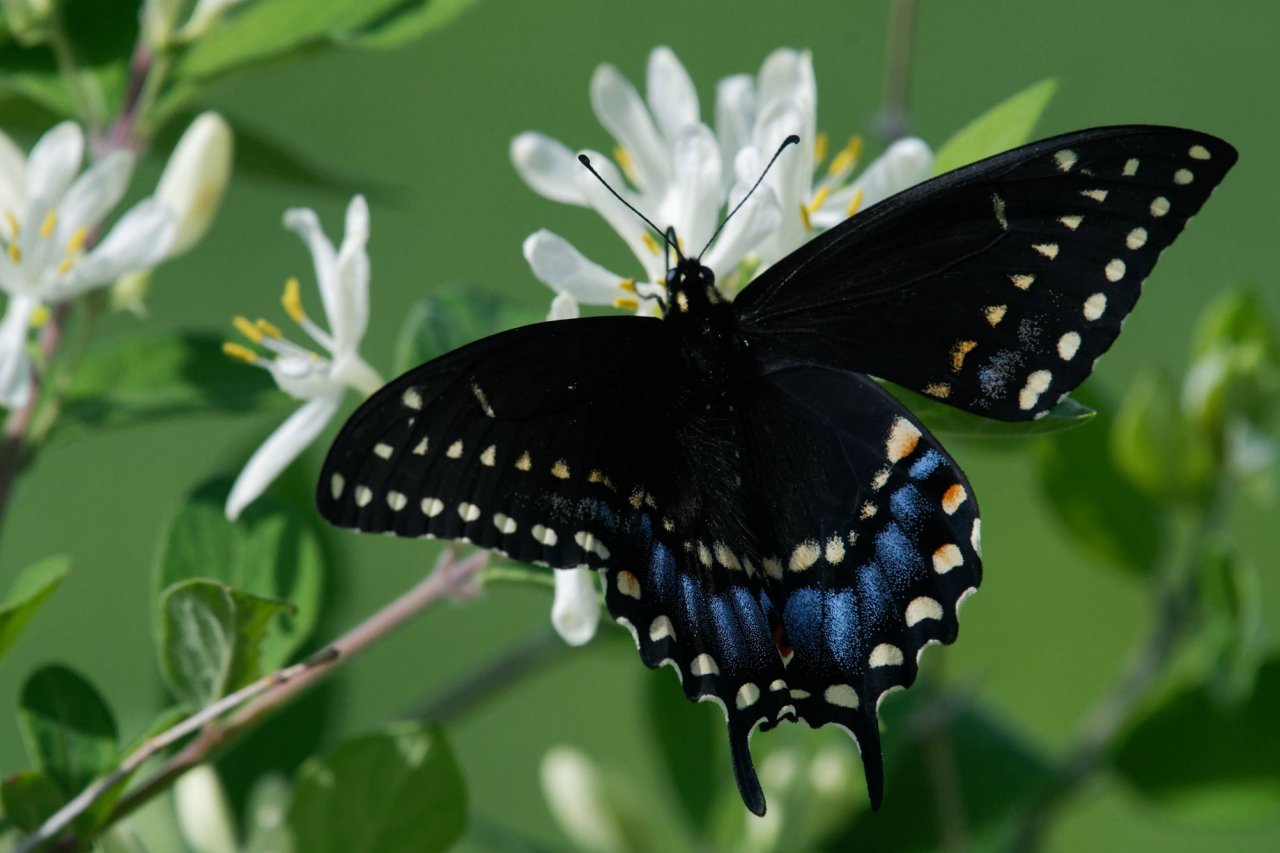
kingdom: Animalia
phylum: Arthropoda
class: Insecta
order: Lepidoptera
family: Papilionidae
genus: Papilio
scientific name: Papilio polyxenes
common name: Black Swallowtail
